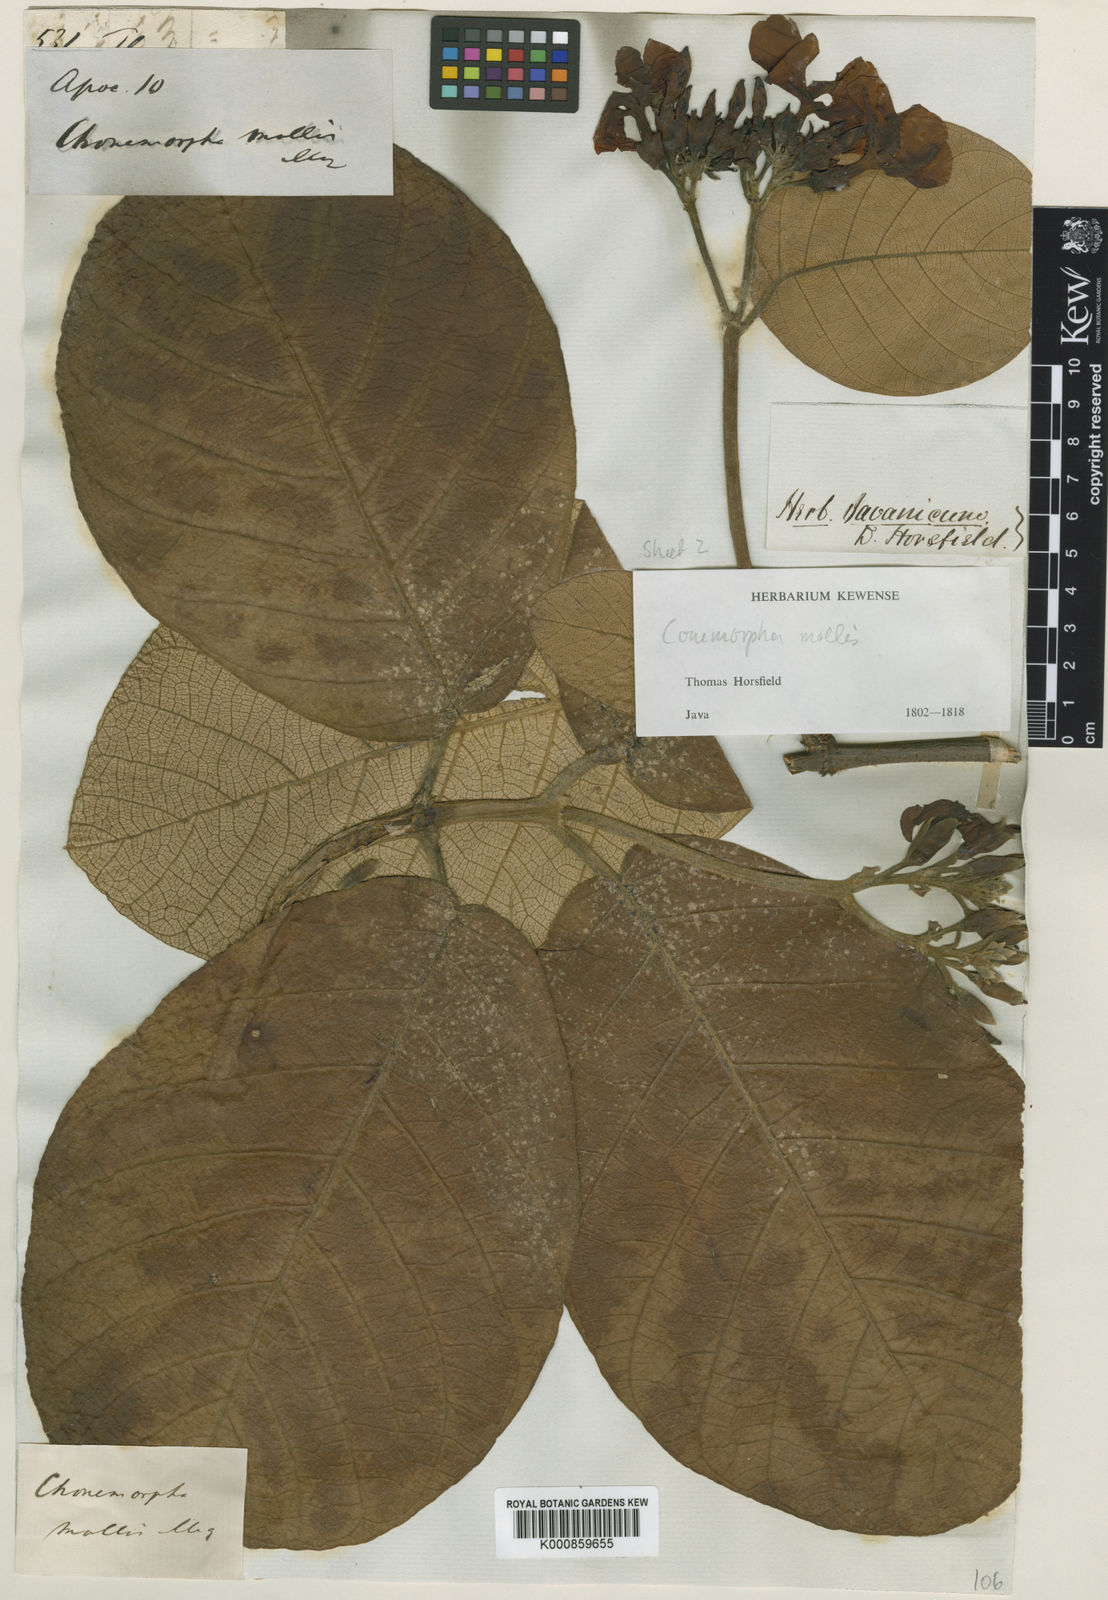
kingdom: Plantae
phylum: Tracheophyta
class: Magnoliopsida
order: Gentianales
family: Apocynaceae
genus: Chonemorpha
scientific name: Chonemorpha
